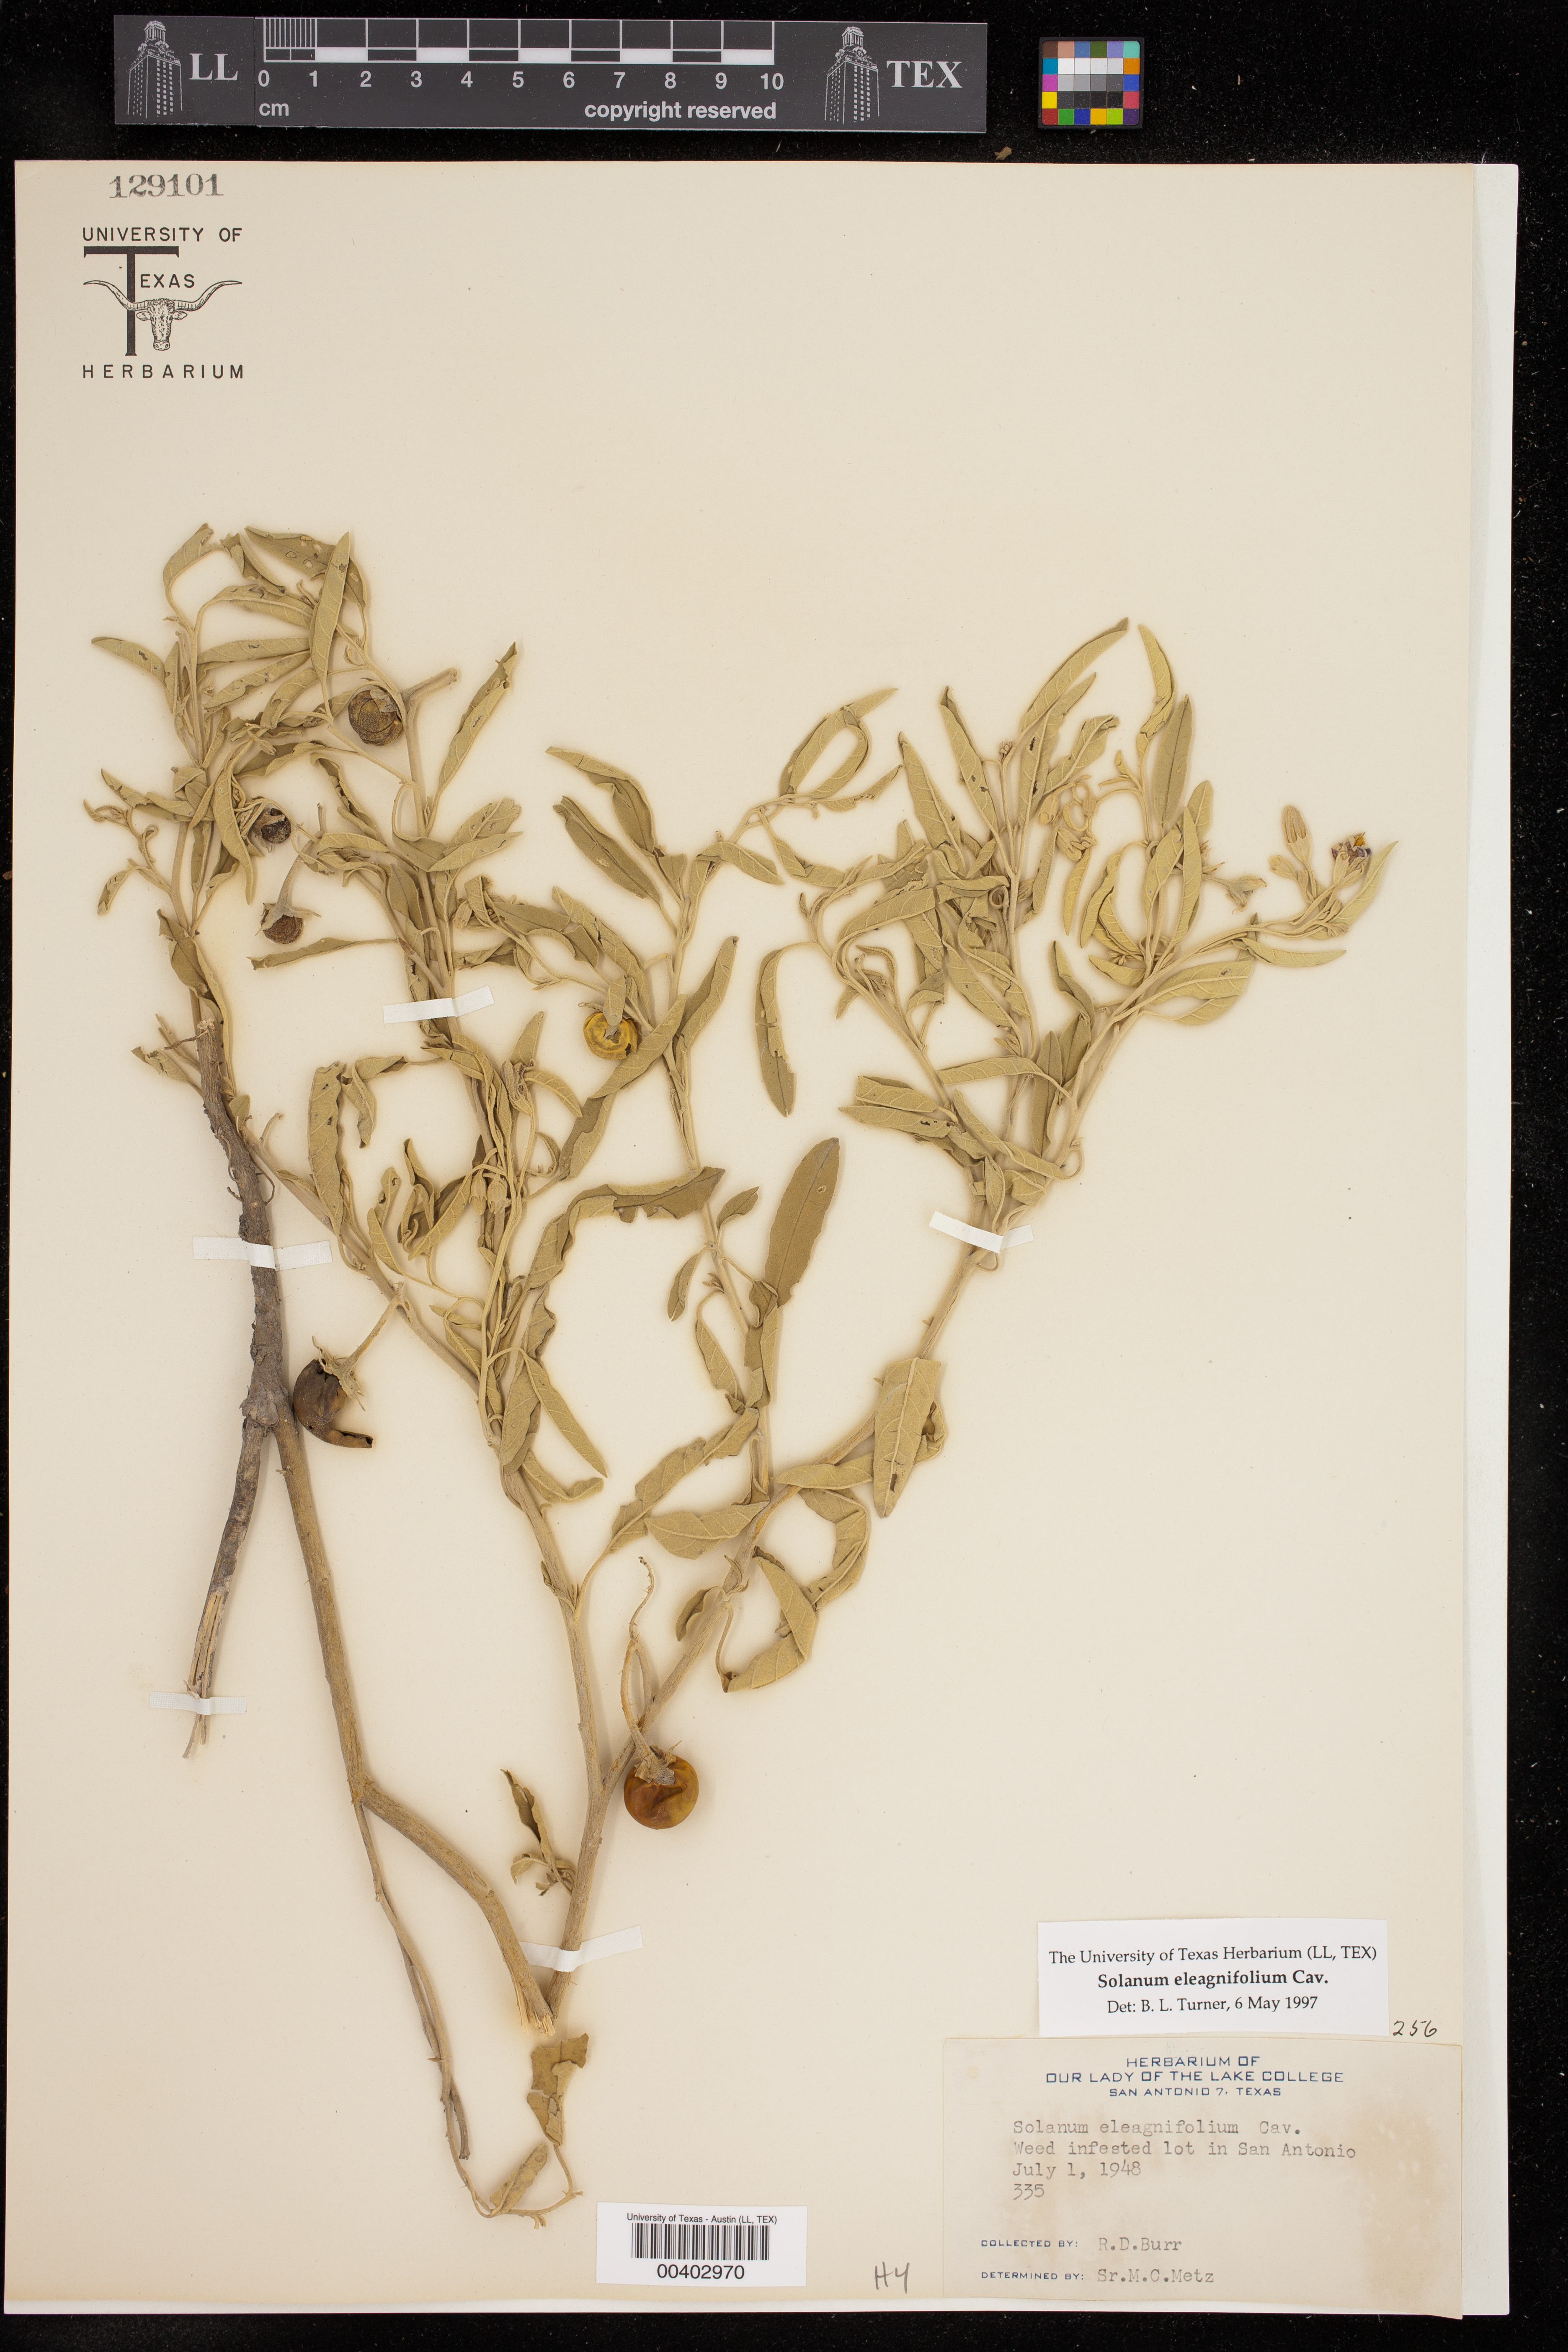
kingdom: Plantae
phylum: Tracheophyta
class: Magnoliopsida
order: Solanales
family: Solanaceae
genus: Solanum
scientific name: Solanum elaeagnifolium
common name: Silverleaf nightshade
